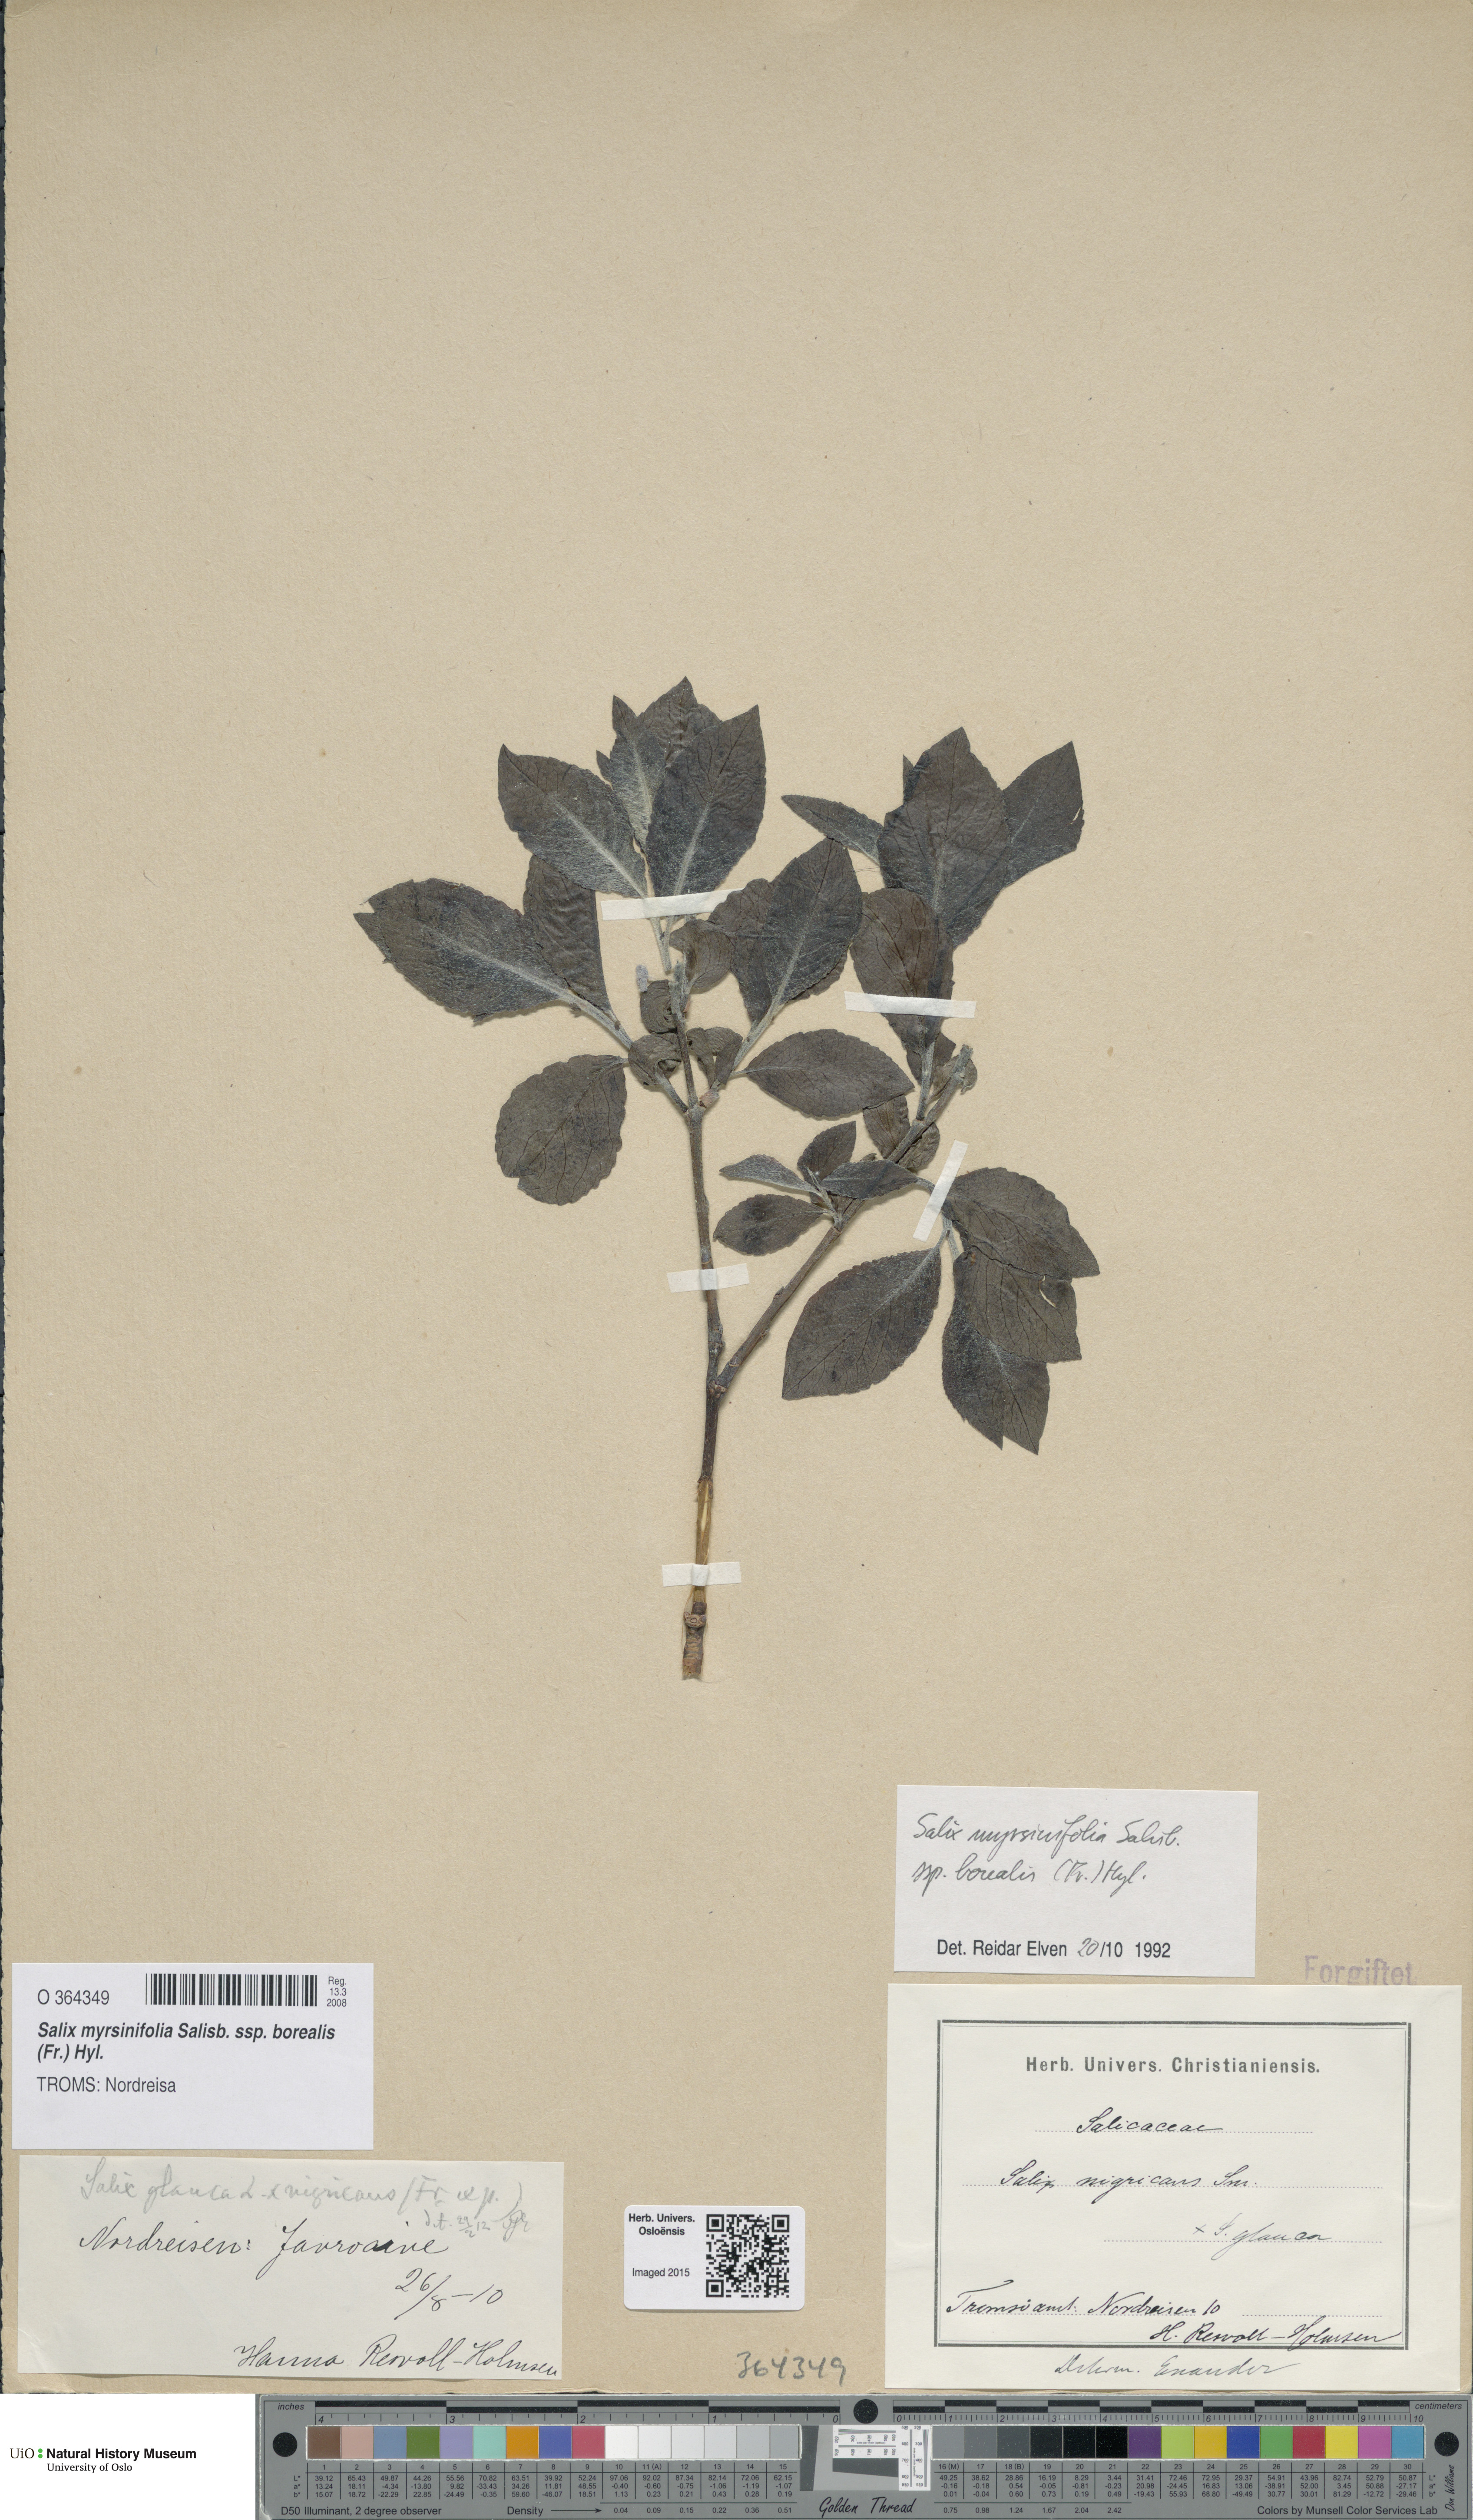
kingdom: Plantae
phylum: Tracheophyta
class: Magnoliopsida
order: Malpighiales
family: Salicaceae
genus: Salix
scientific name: Salix myrsinifolia
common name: Dark-leaved willow
